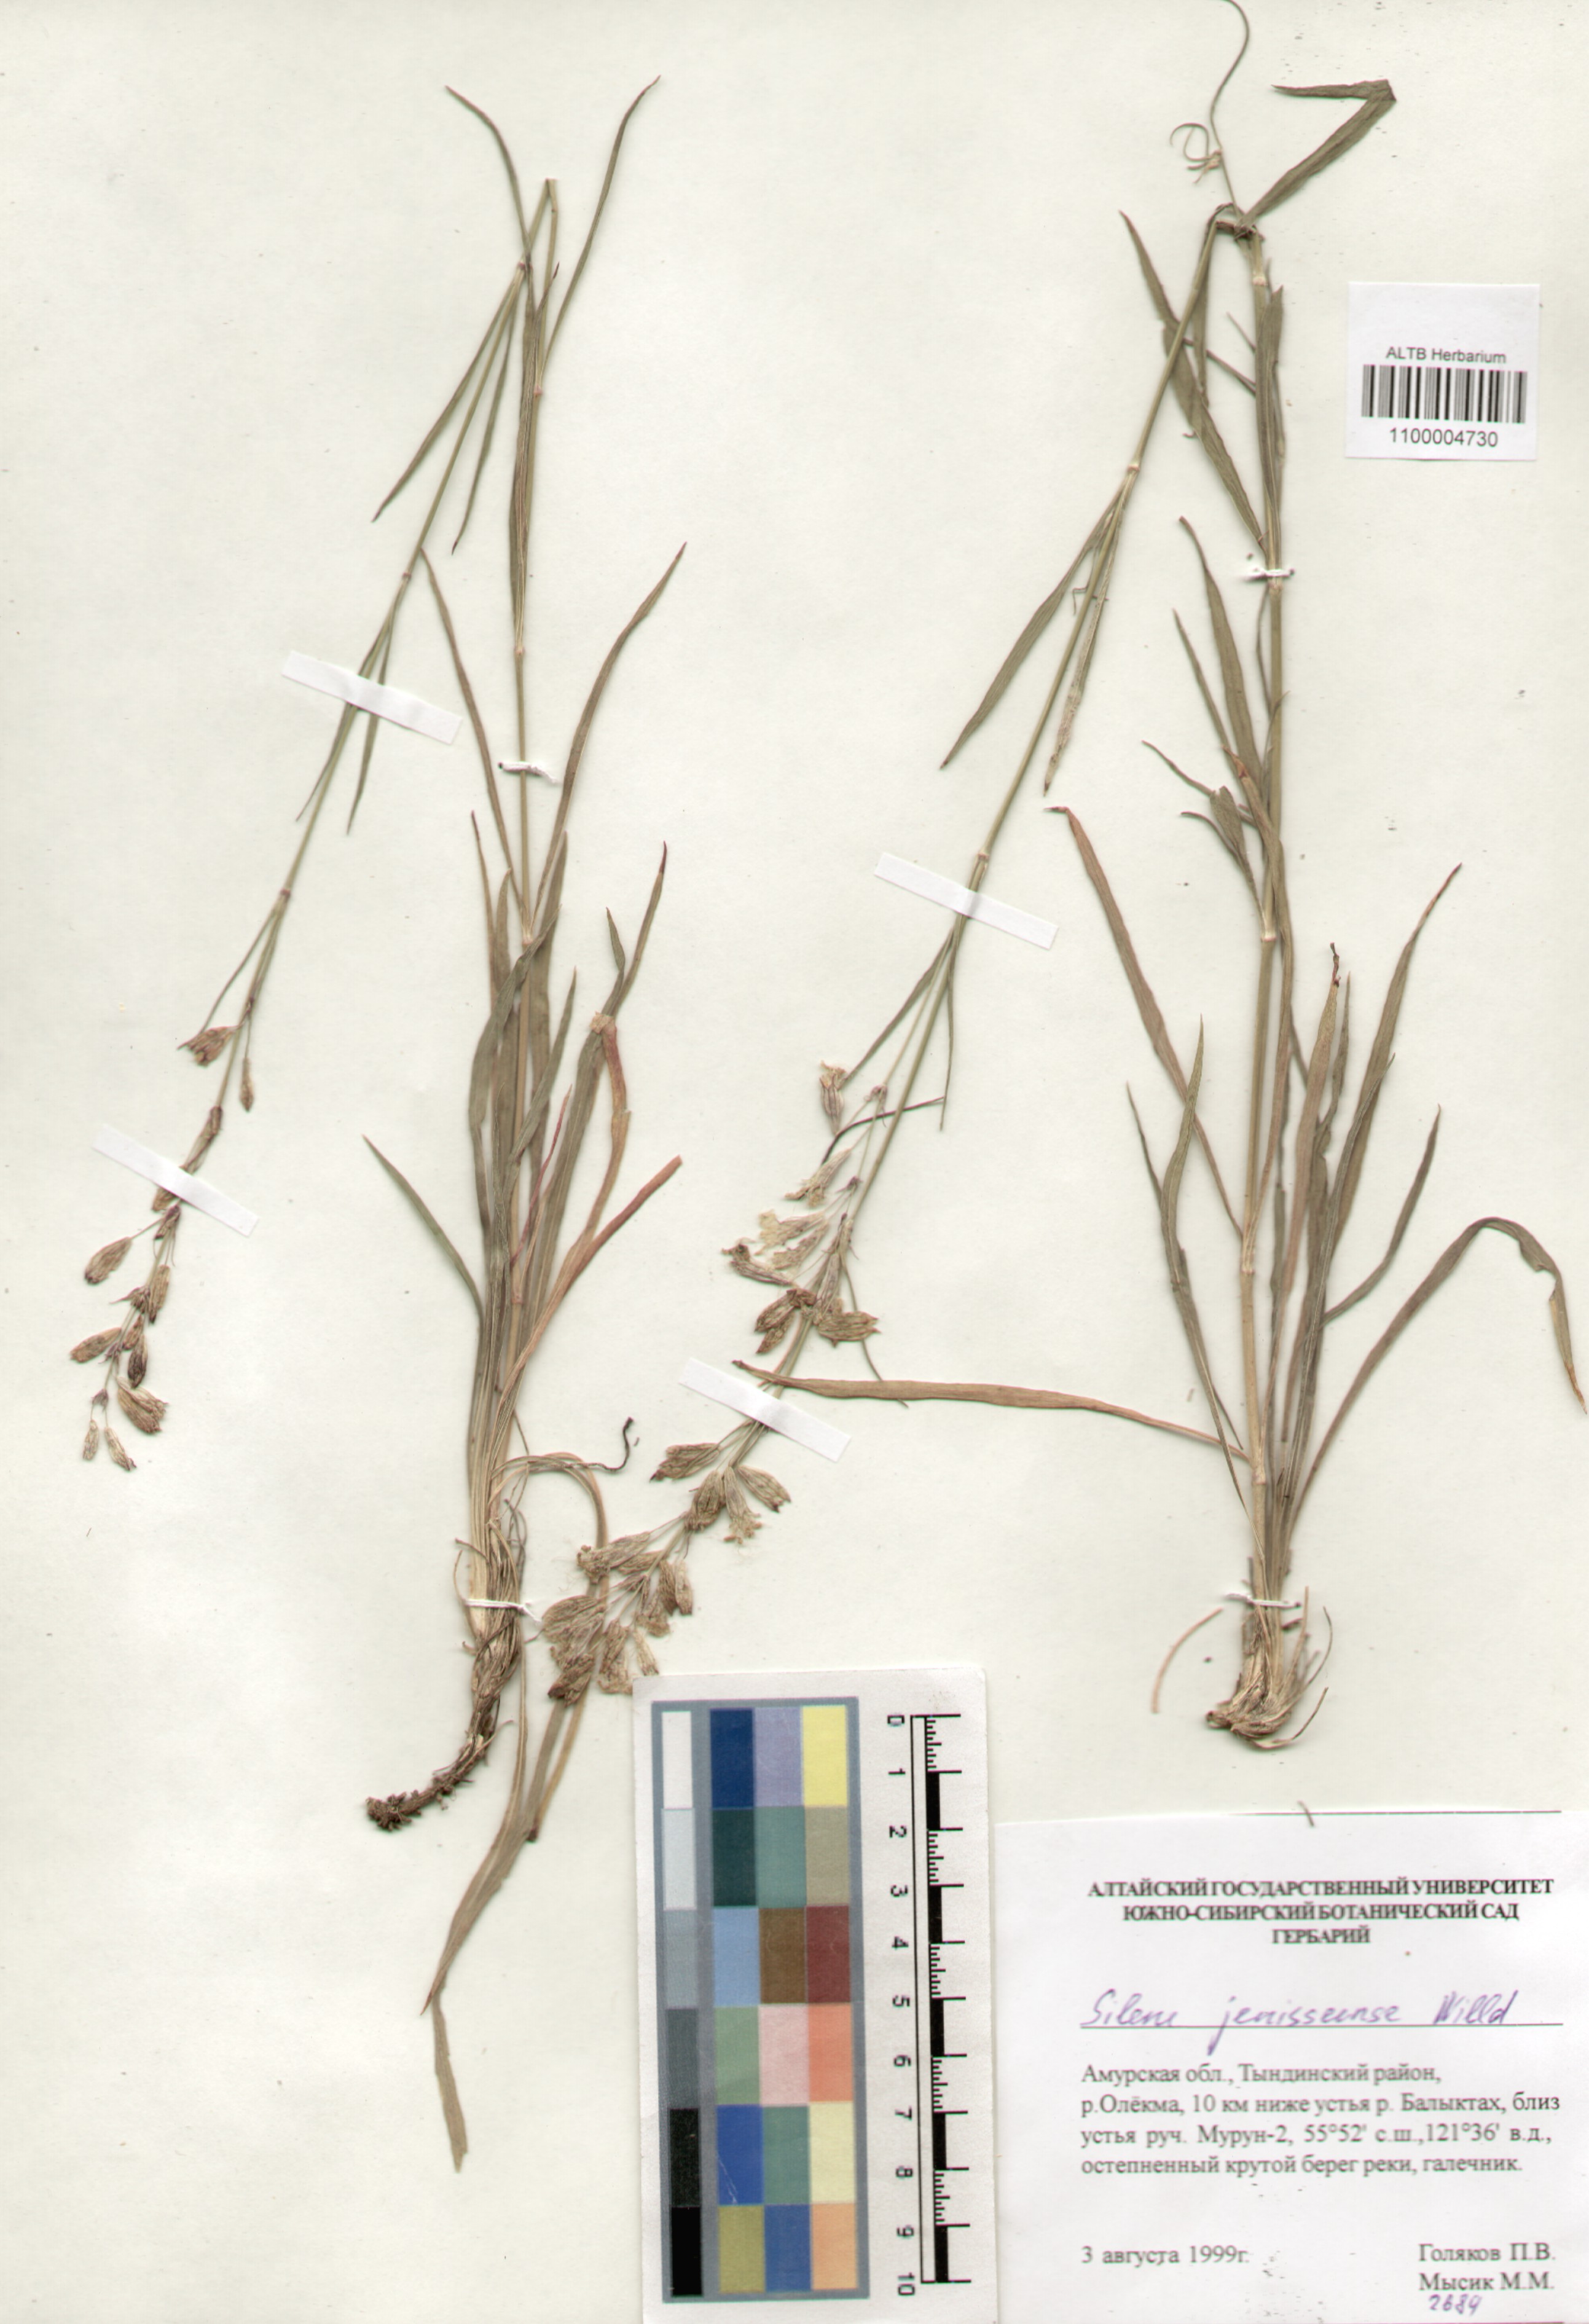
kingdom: Plantae
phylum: Tracheophyta
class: Magnoliopsida
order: Caryophyllales
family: Caryophyllaceae
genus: Silene
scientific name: Silene jeniseensis
